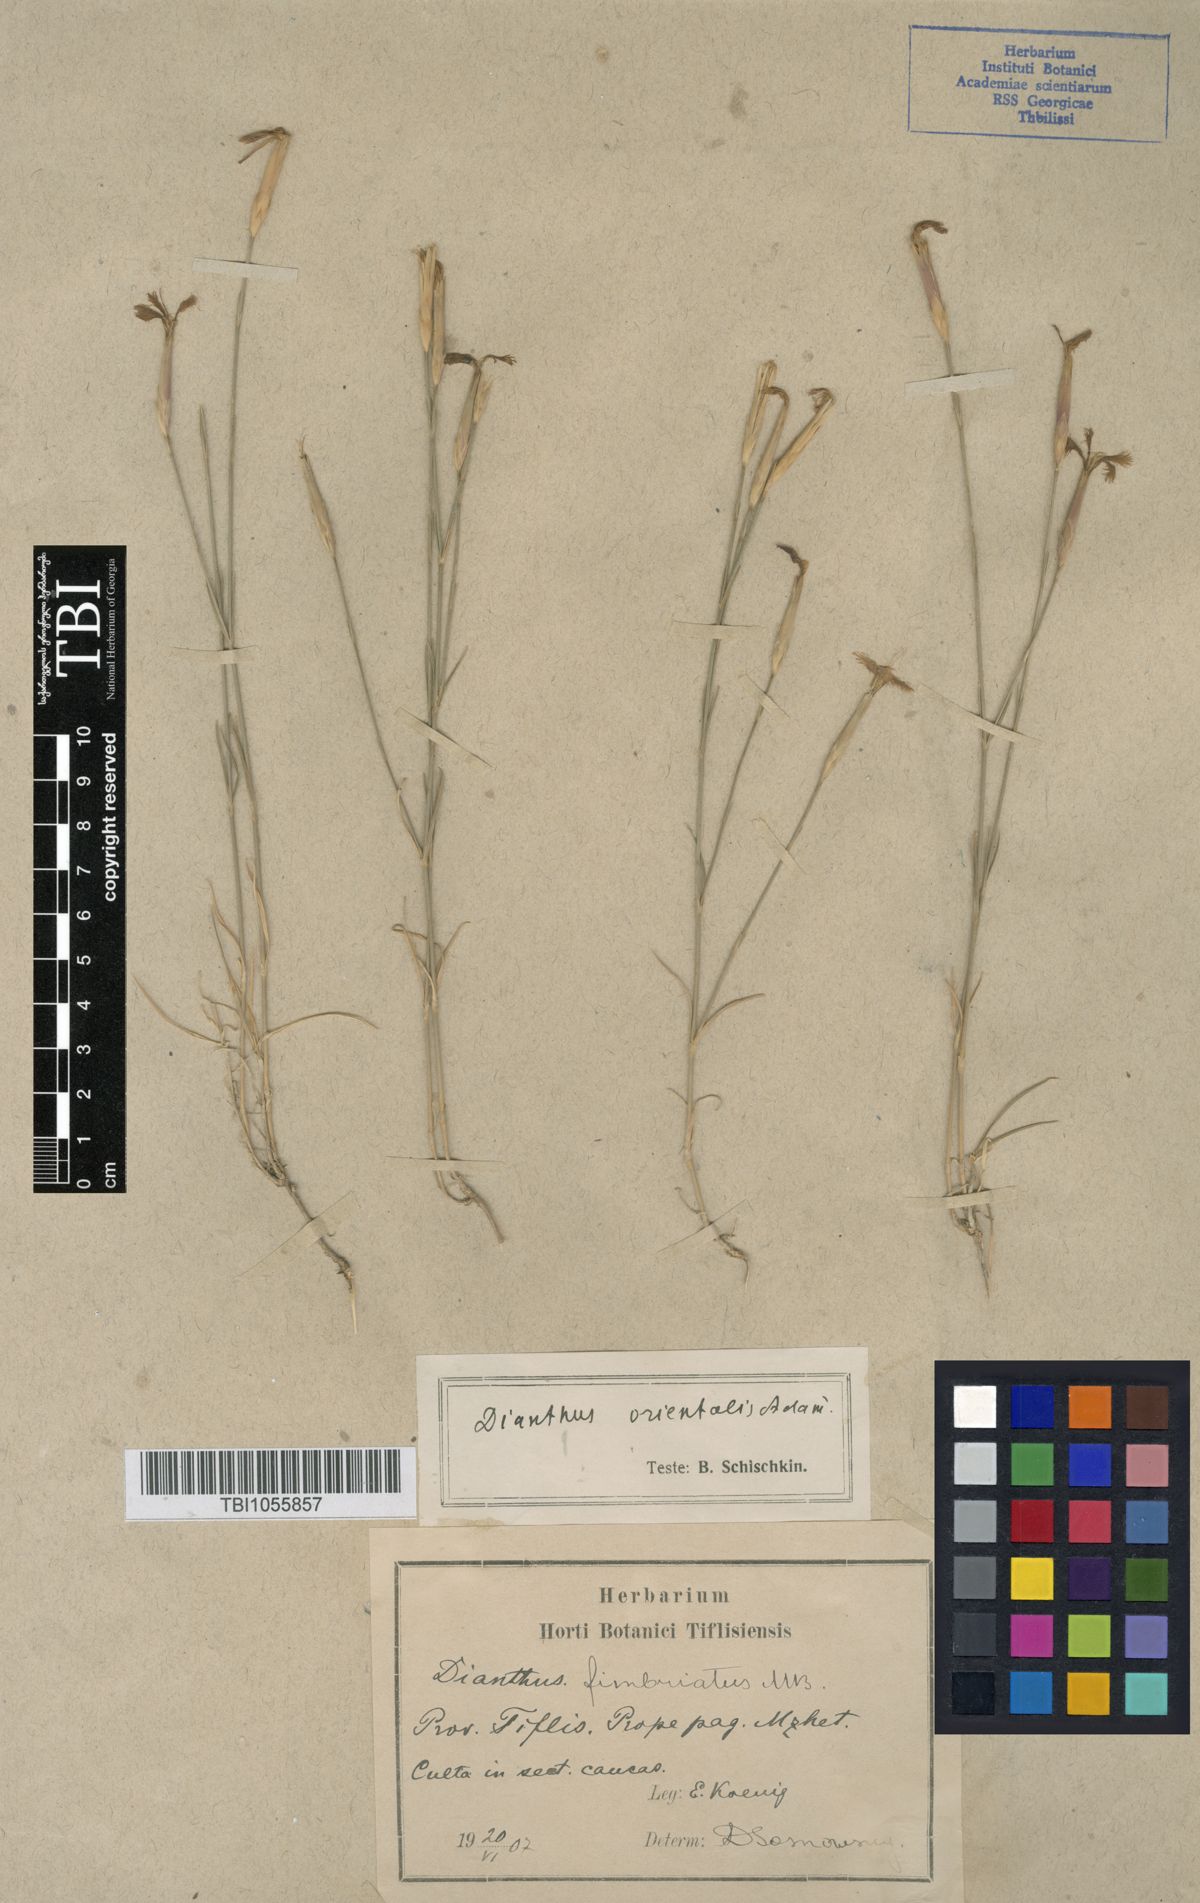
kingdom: Plantae
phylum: Tracheophyta
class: Magnoliopsida
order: Caryophyllales
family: Caryophyllaceae
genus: Dianthus
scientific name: Dianthus orientalis
